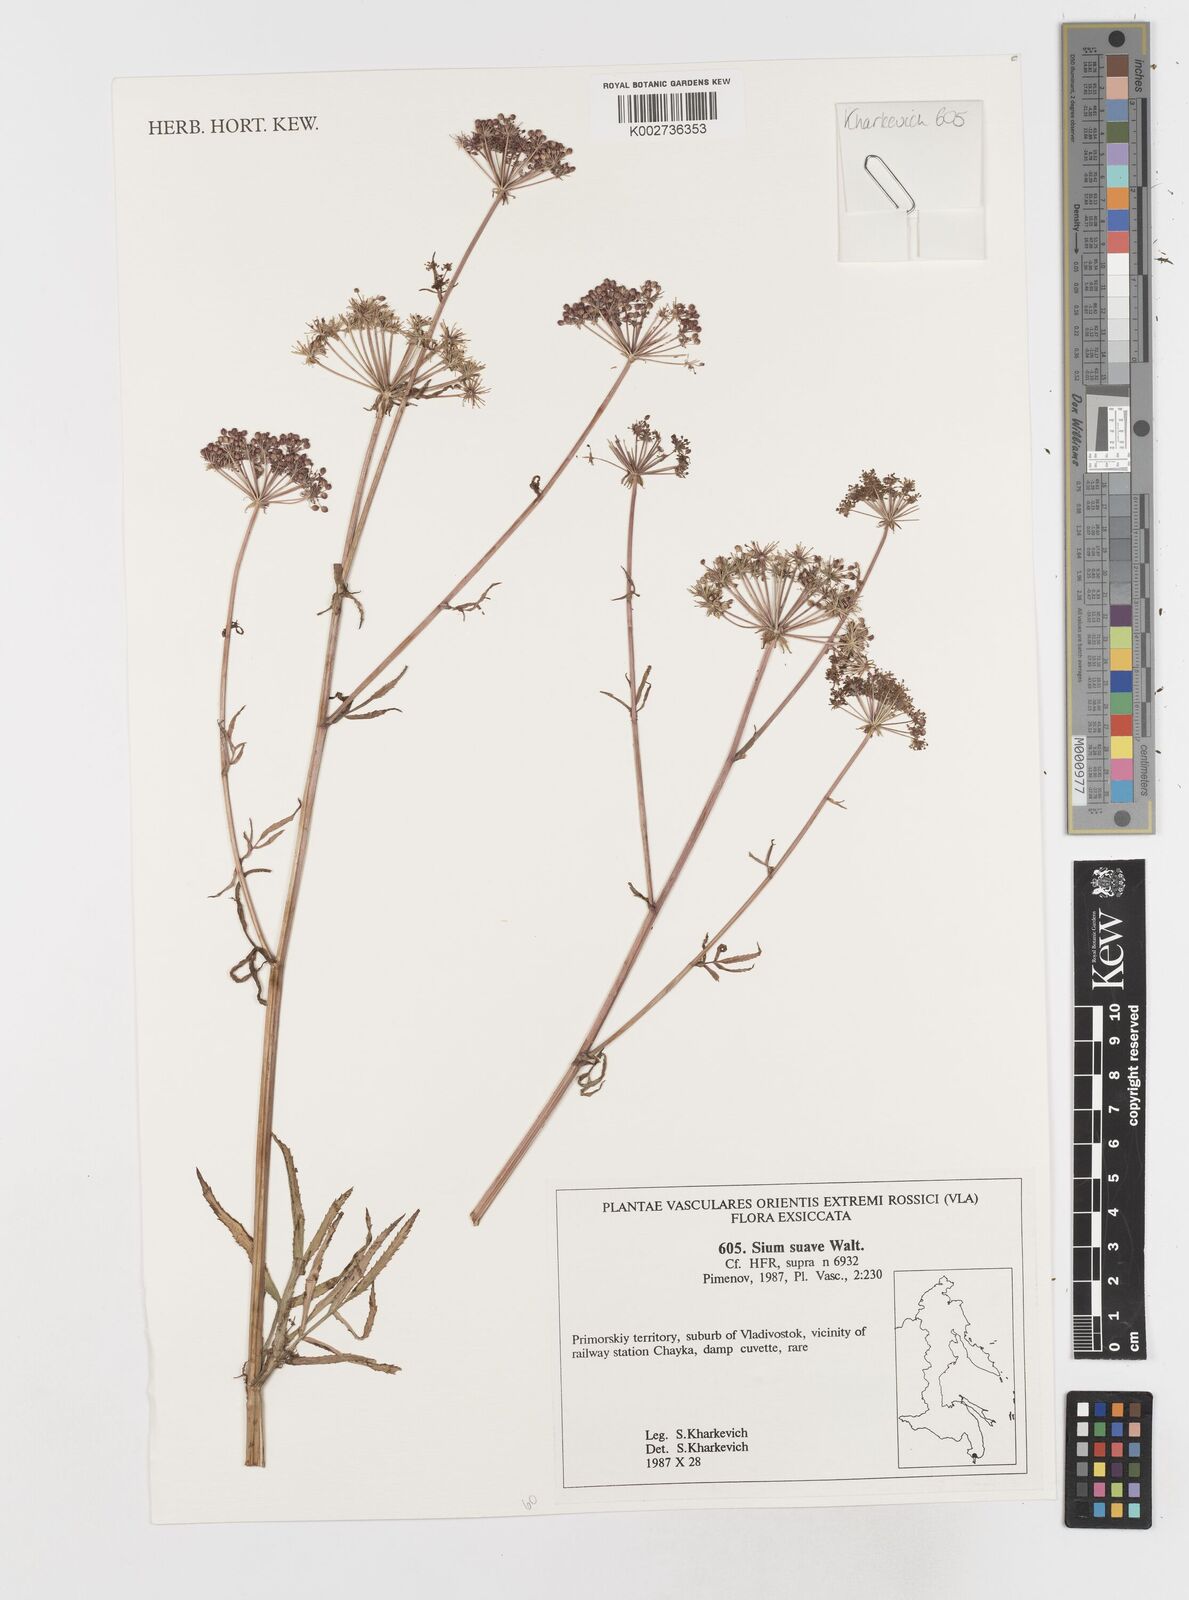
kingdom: Plantae
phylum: Tracheophyta
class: Magnoliopsida
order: Apiales
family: Apiaceae
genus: Sium
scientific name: Sium suave
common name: Hemlock water-parsnip
